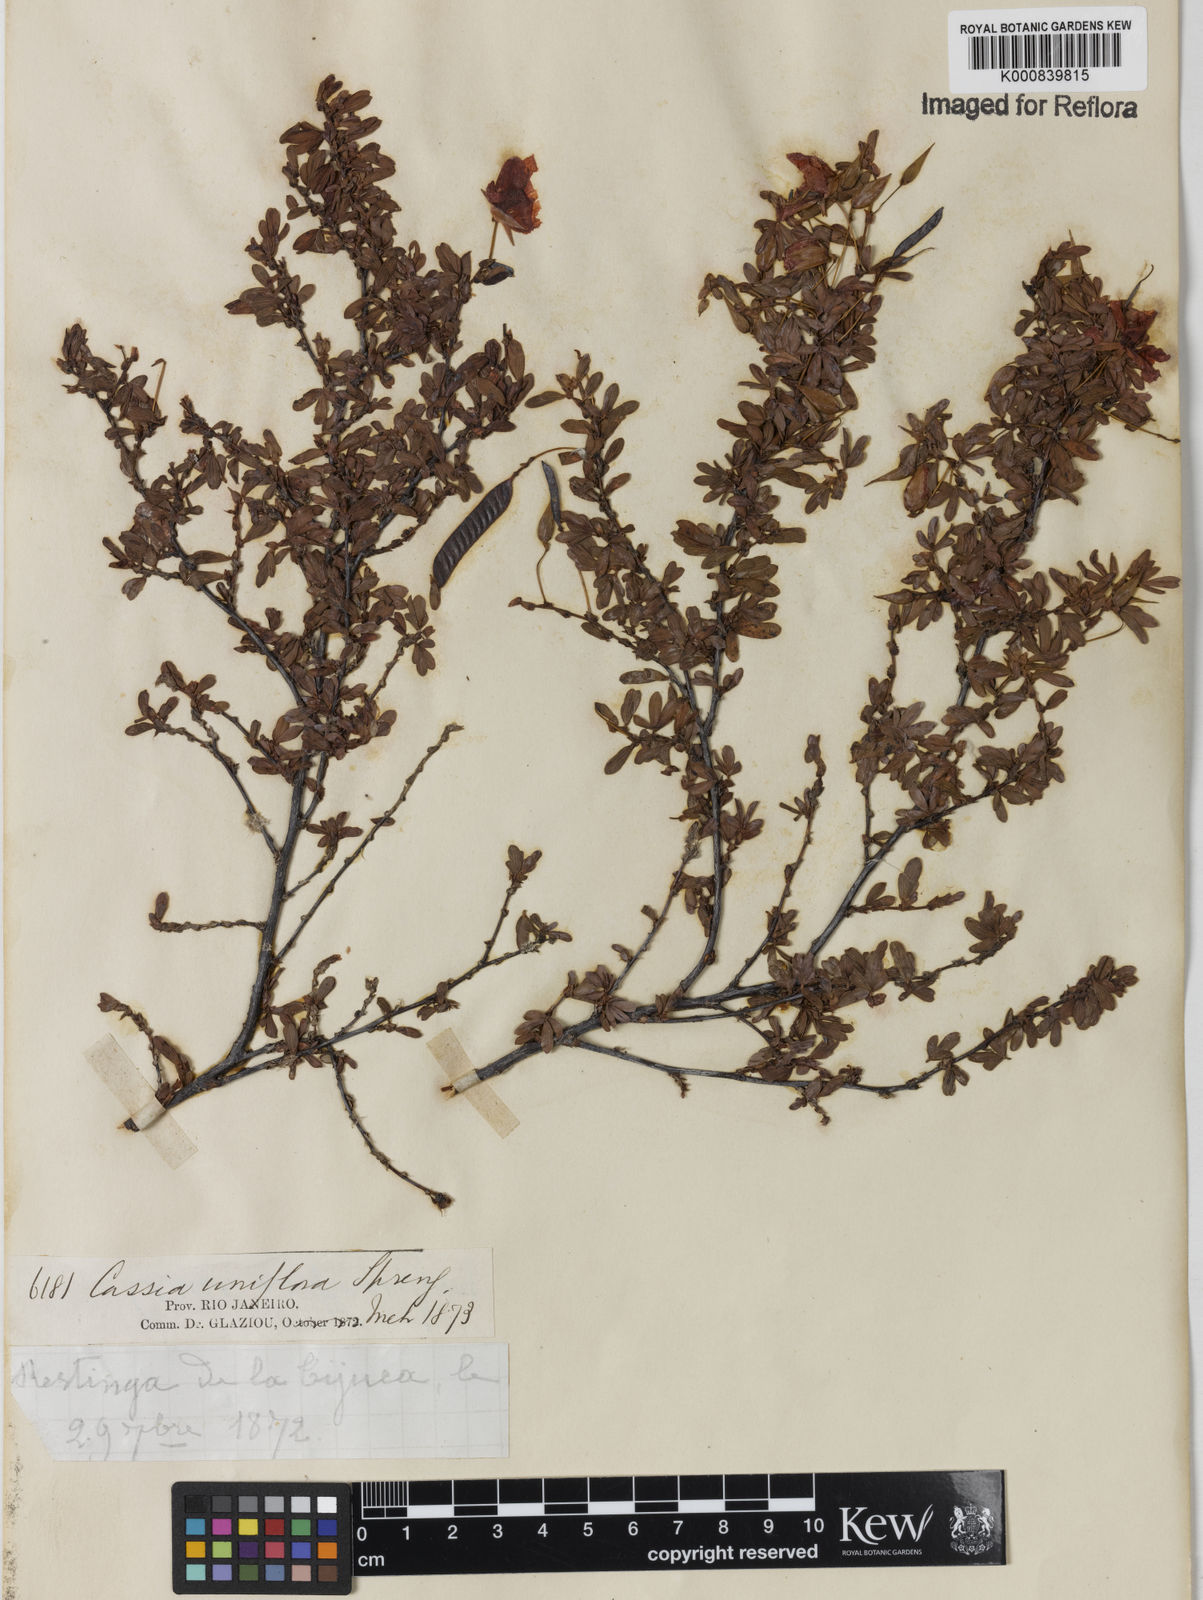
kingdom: Plantae
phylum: Tracheophyta
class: Magnoliopsida
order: Fabales
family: Fabaceae
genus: Chamaecrista
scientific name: Chamaecrista ramosa
